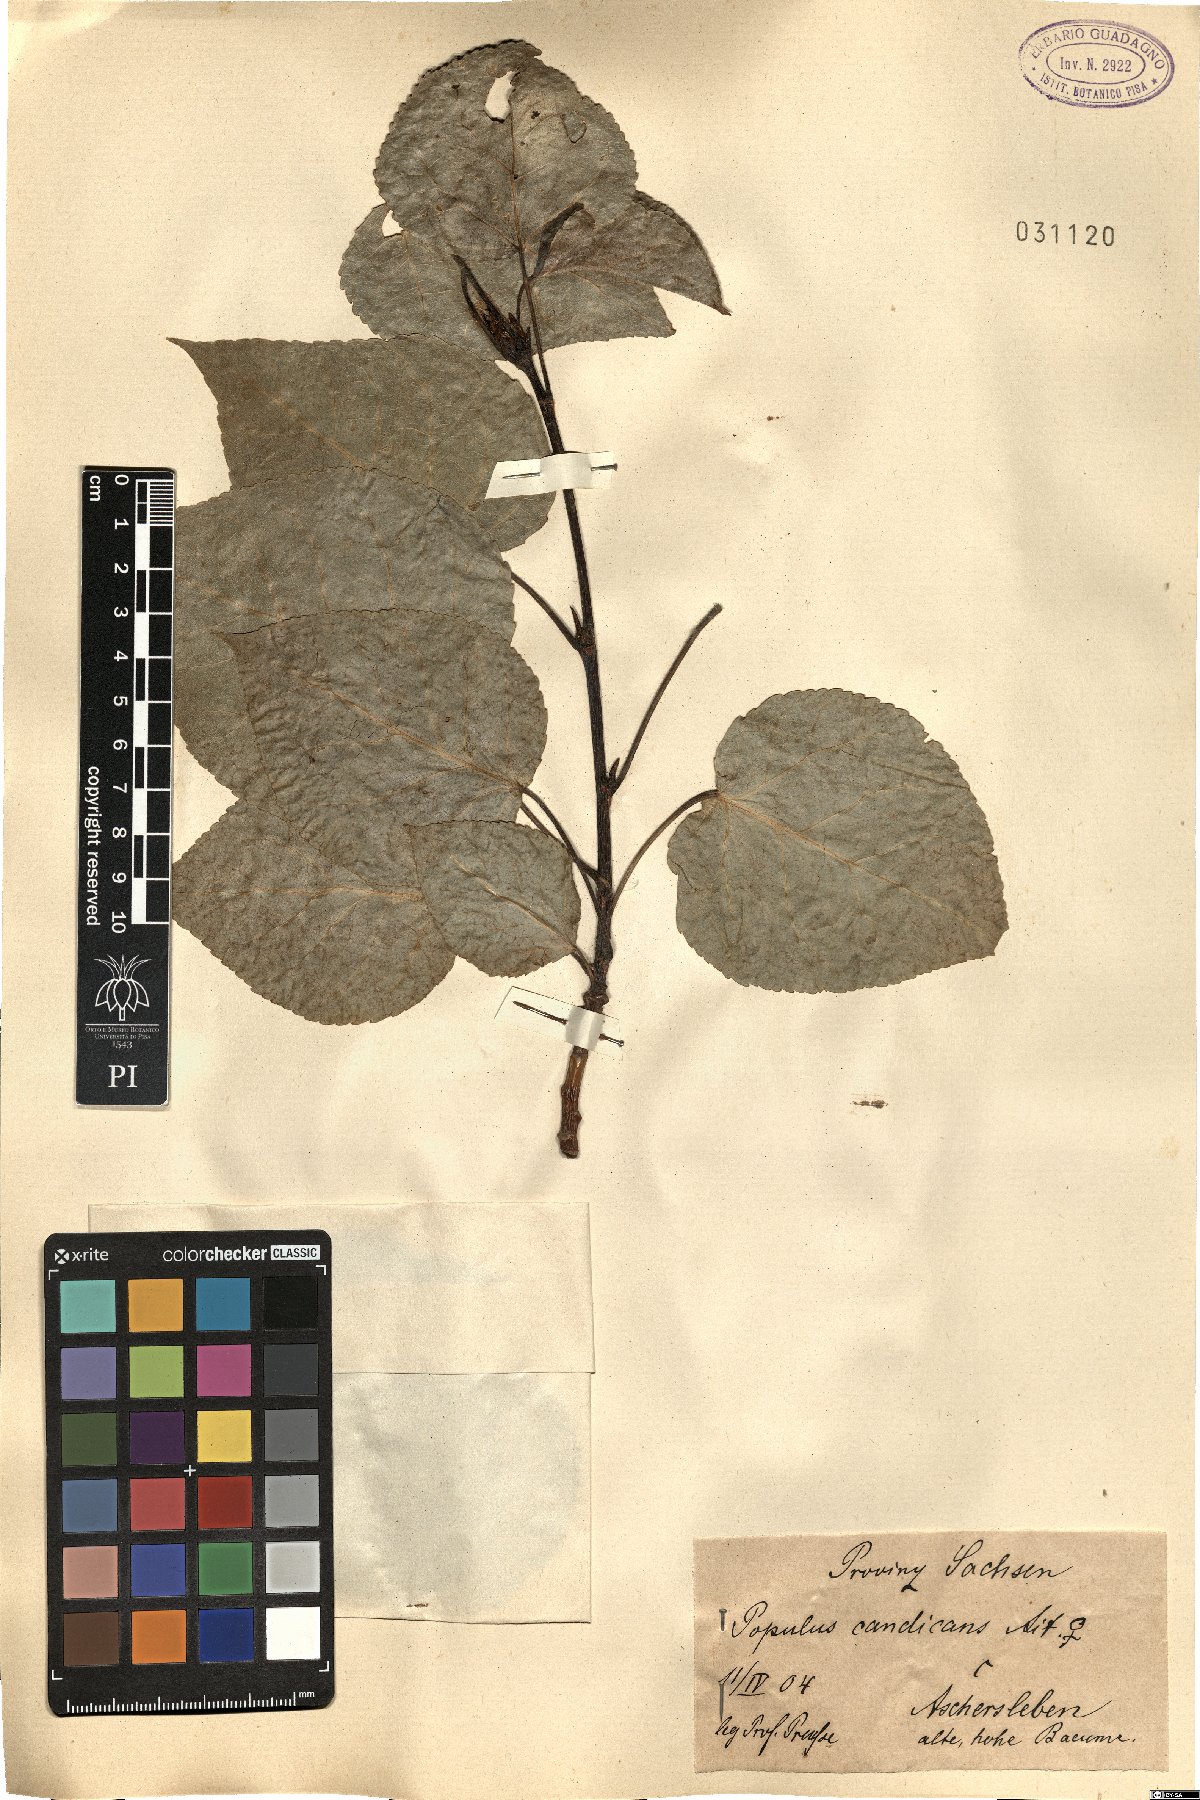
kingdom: Plantae
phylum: Tracheophyta
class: Magnoliopsida
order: Malpighiales
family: Salicaceae
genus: Populus
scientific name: Populus balsamifera
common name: Balsam poplar
